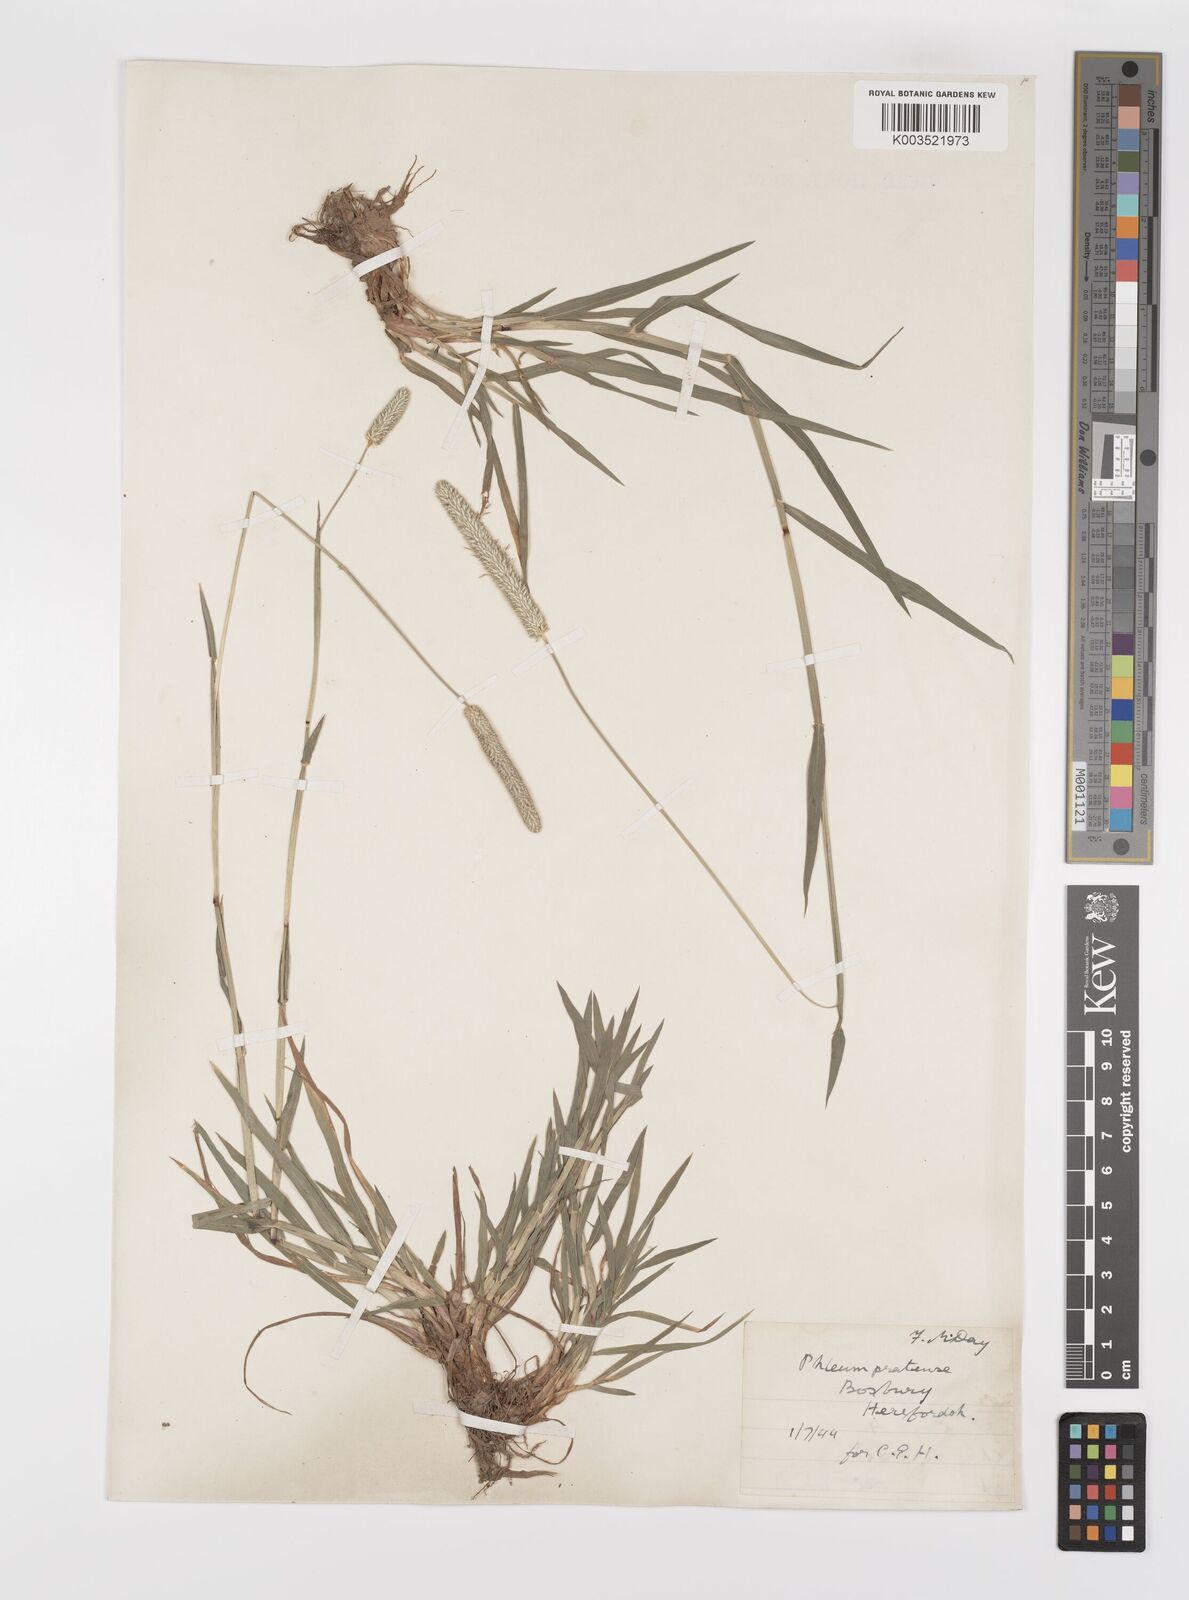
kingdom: Plantae
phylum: Tracheophyta
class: Liliopsida
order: Poales
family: Poaceae
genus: Phleum
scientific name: Phleum bertolonii
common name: Smaller cat's-tail
